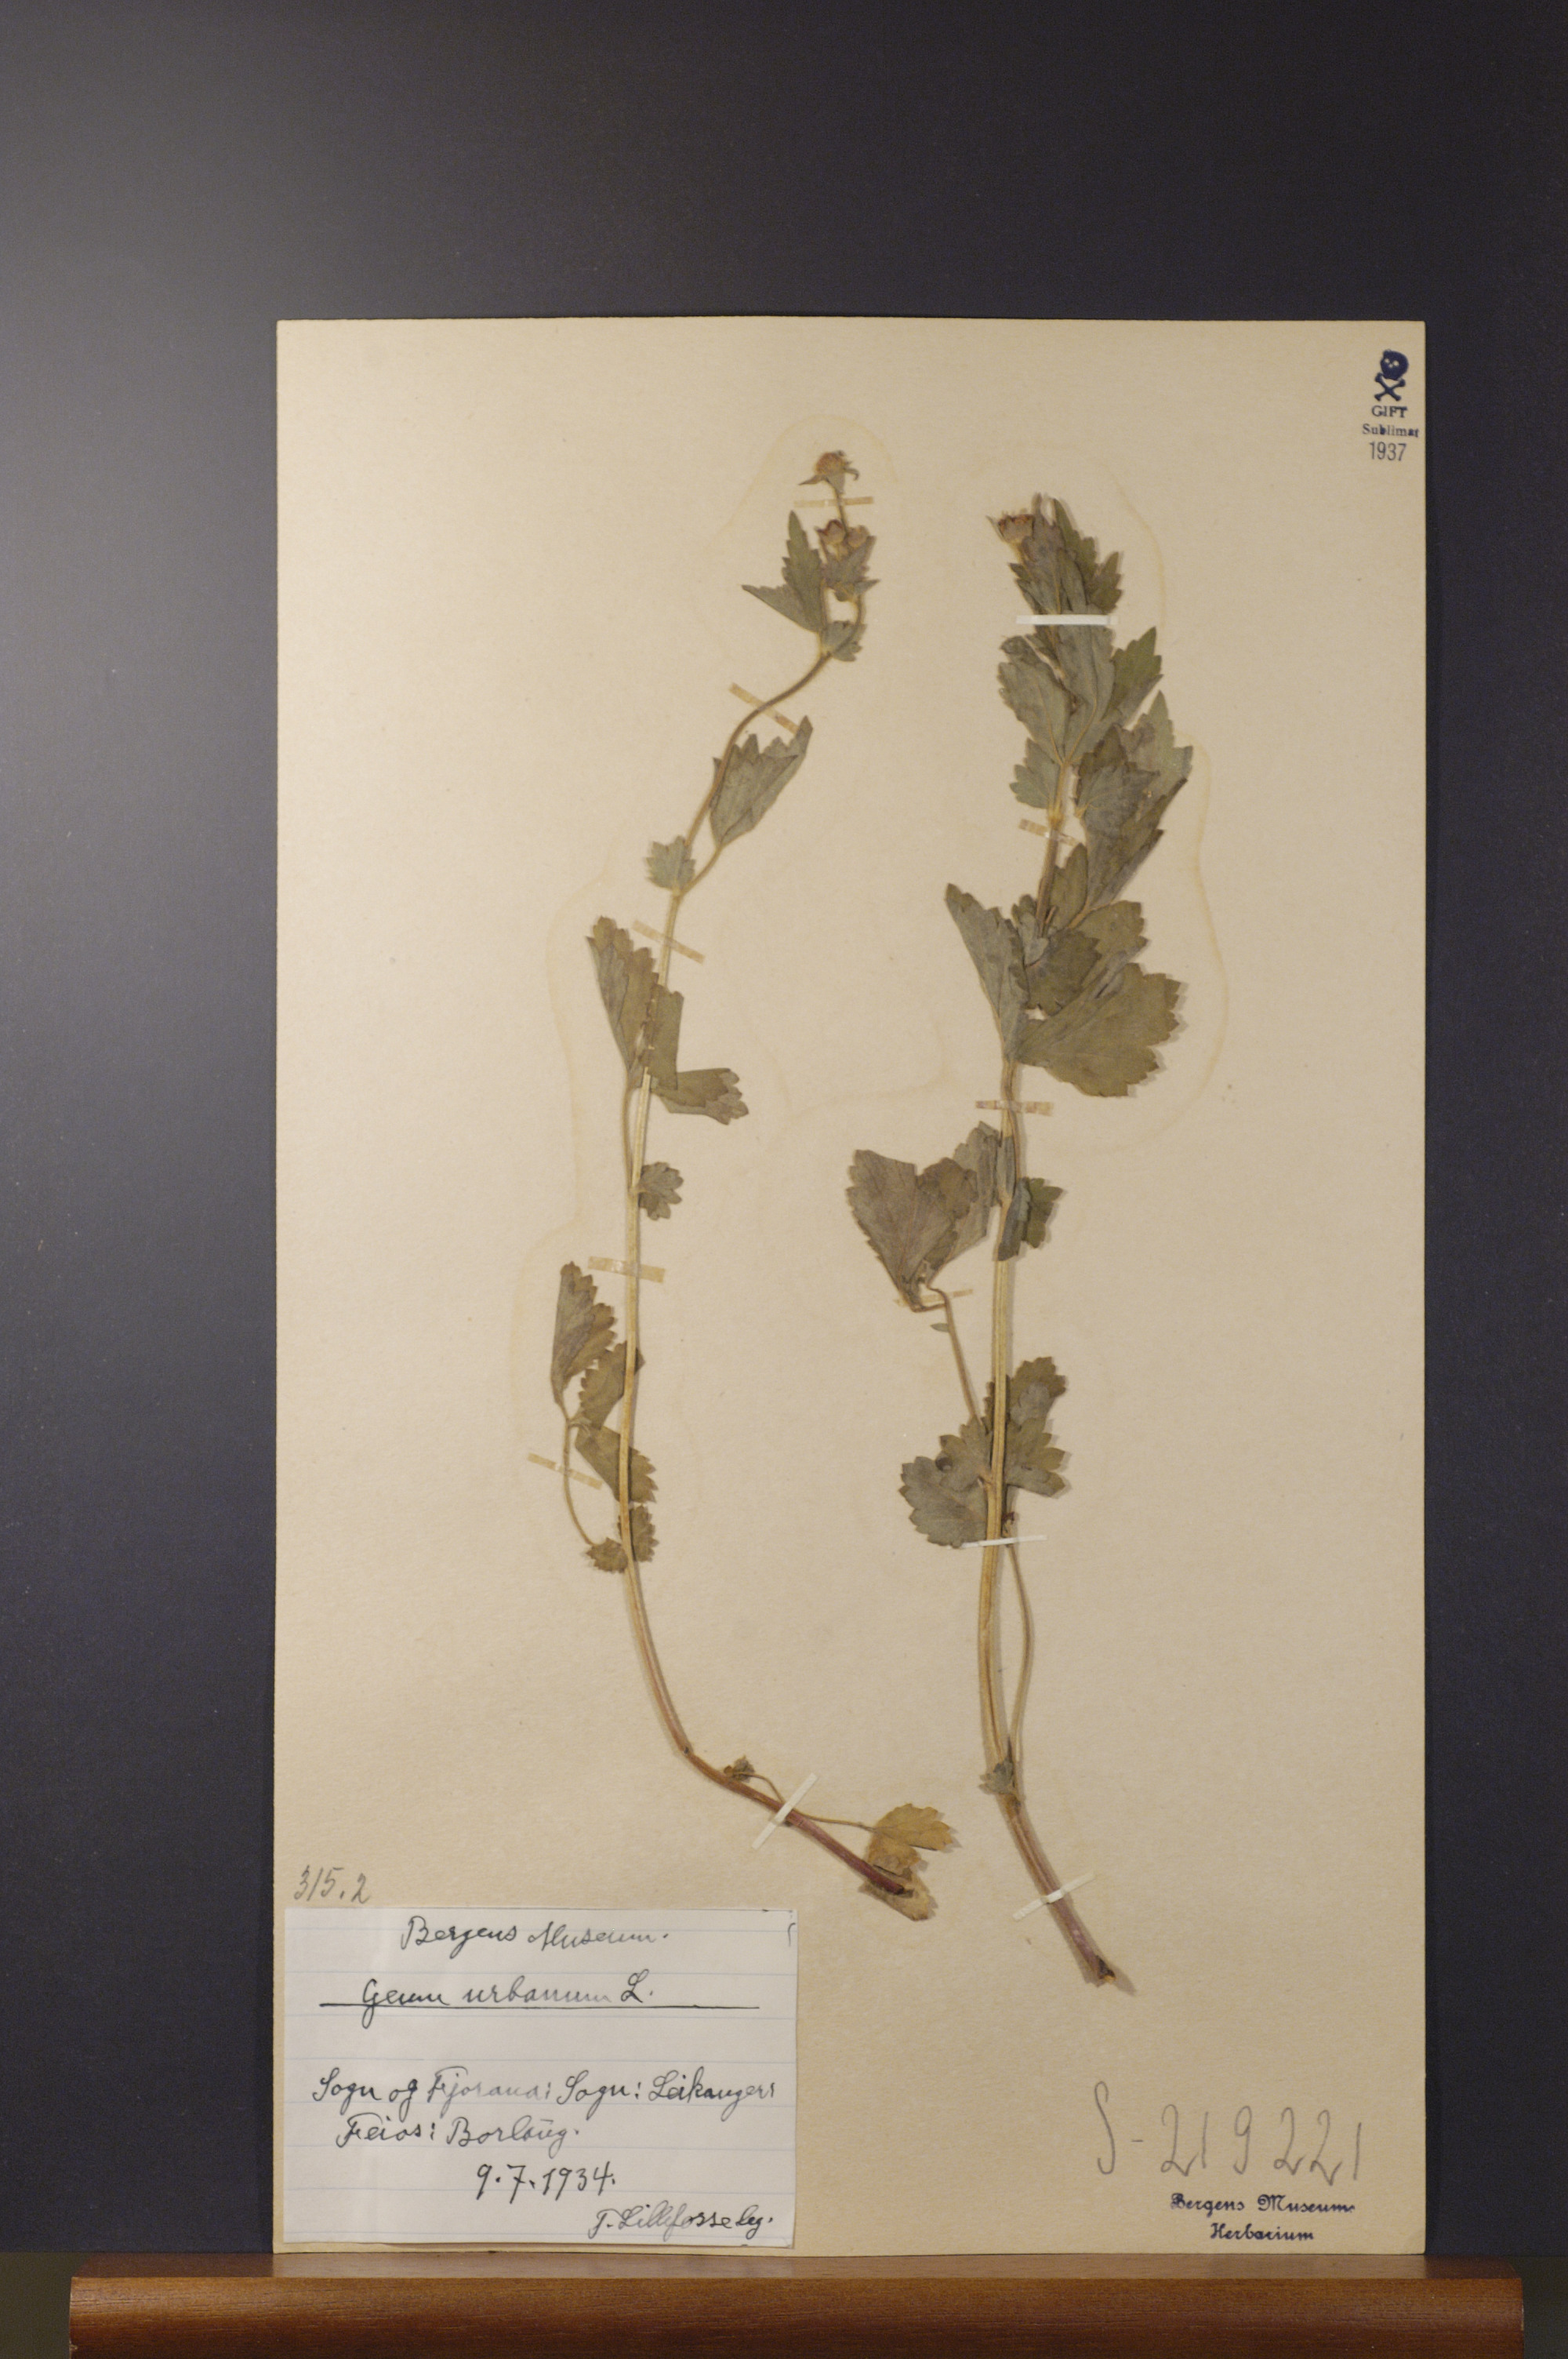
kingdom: Plantae
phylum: Tracheophyta
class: Magnoliopsida
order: Rosales
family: Rosaceae
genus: Geum
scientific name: Geum urbanum
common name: Wood avens
